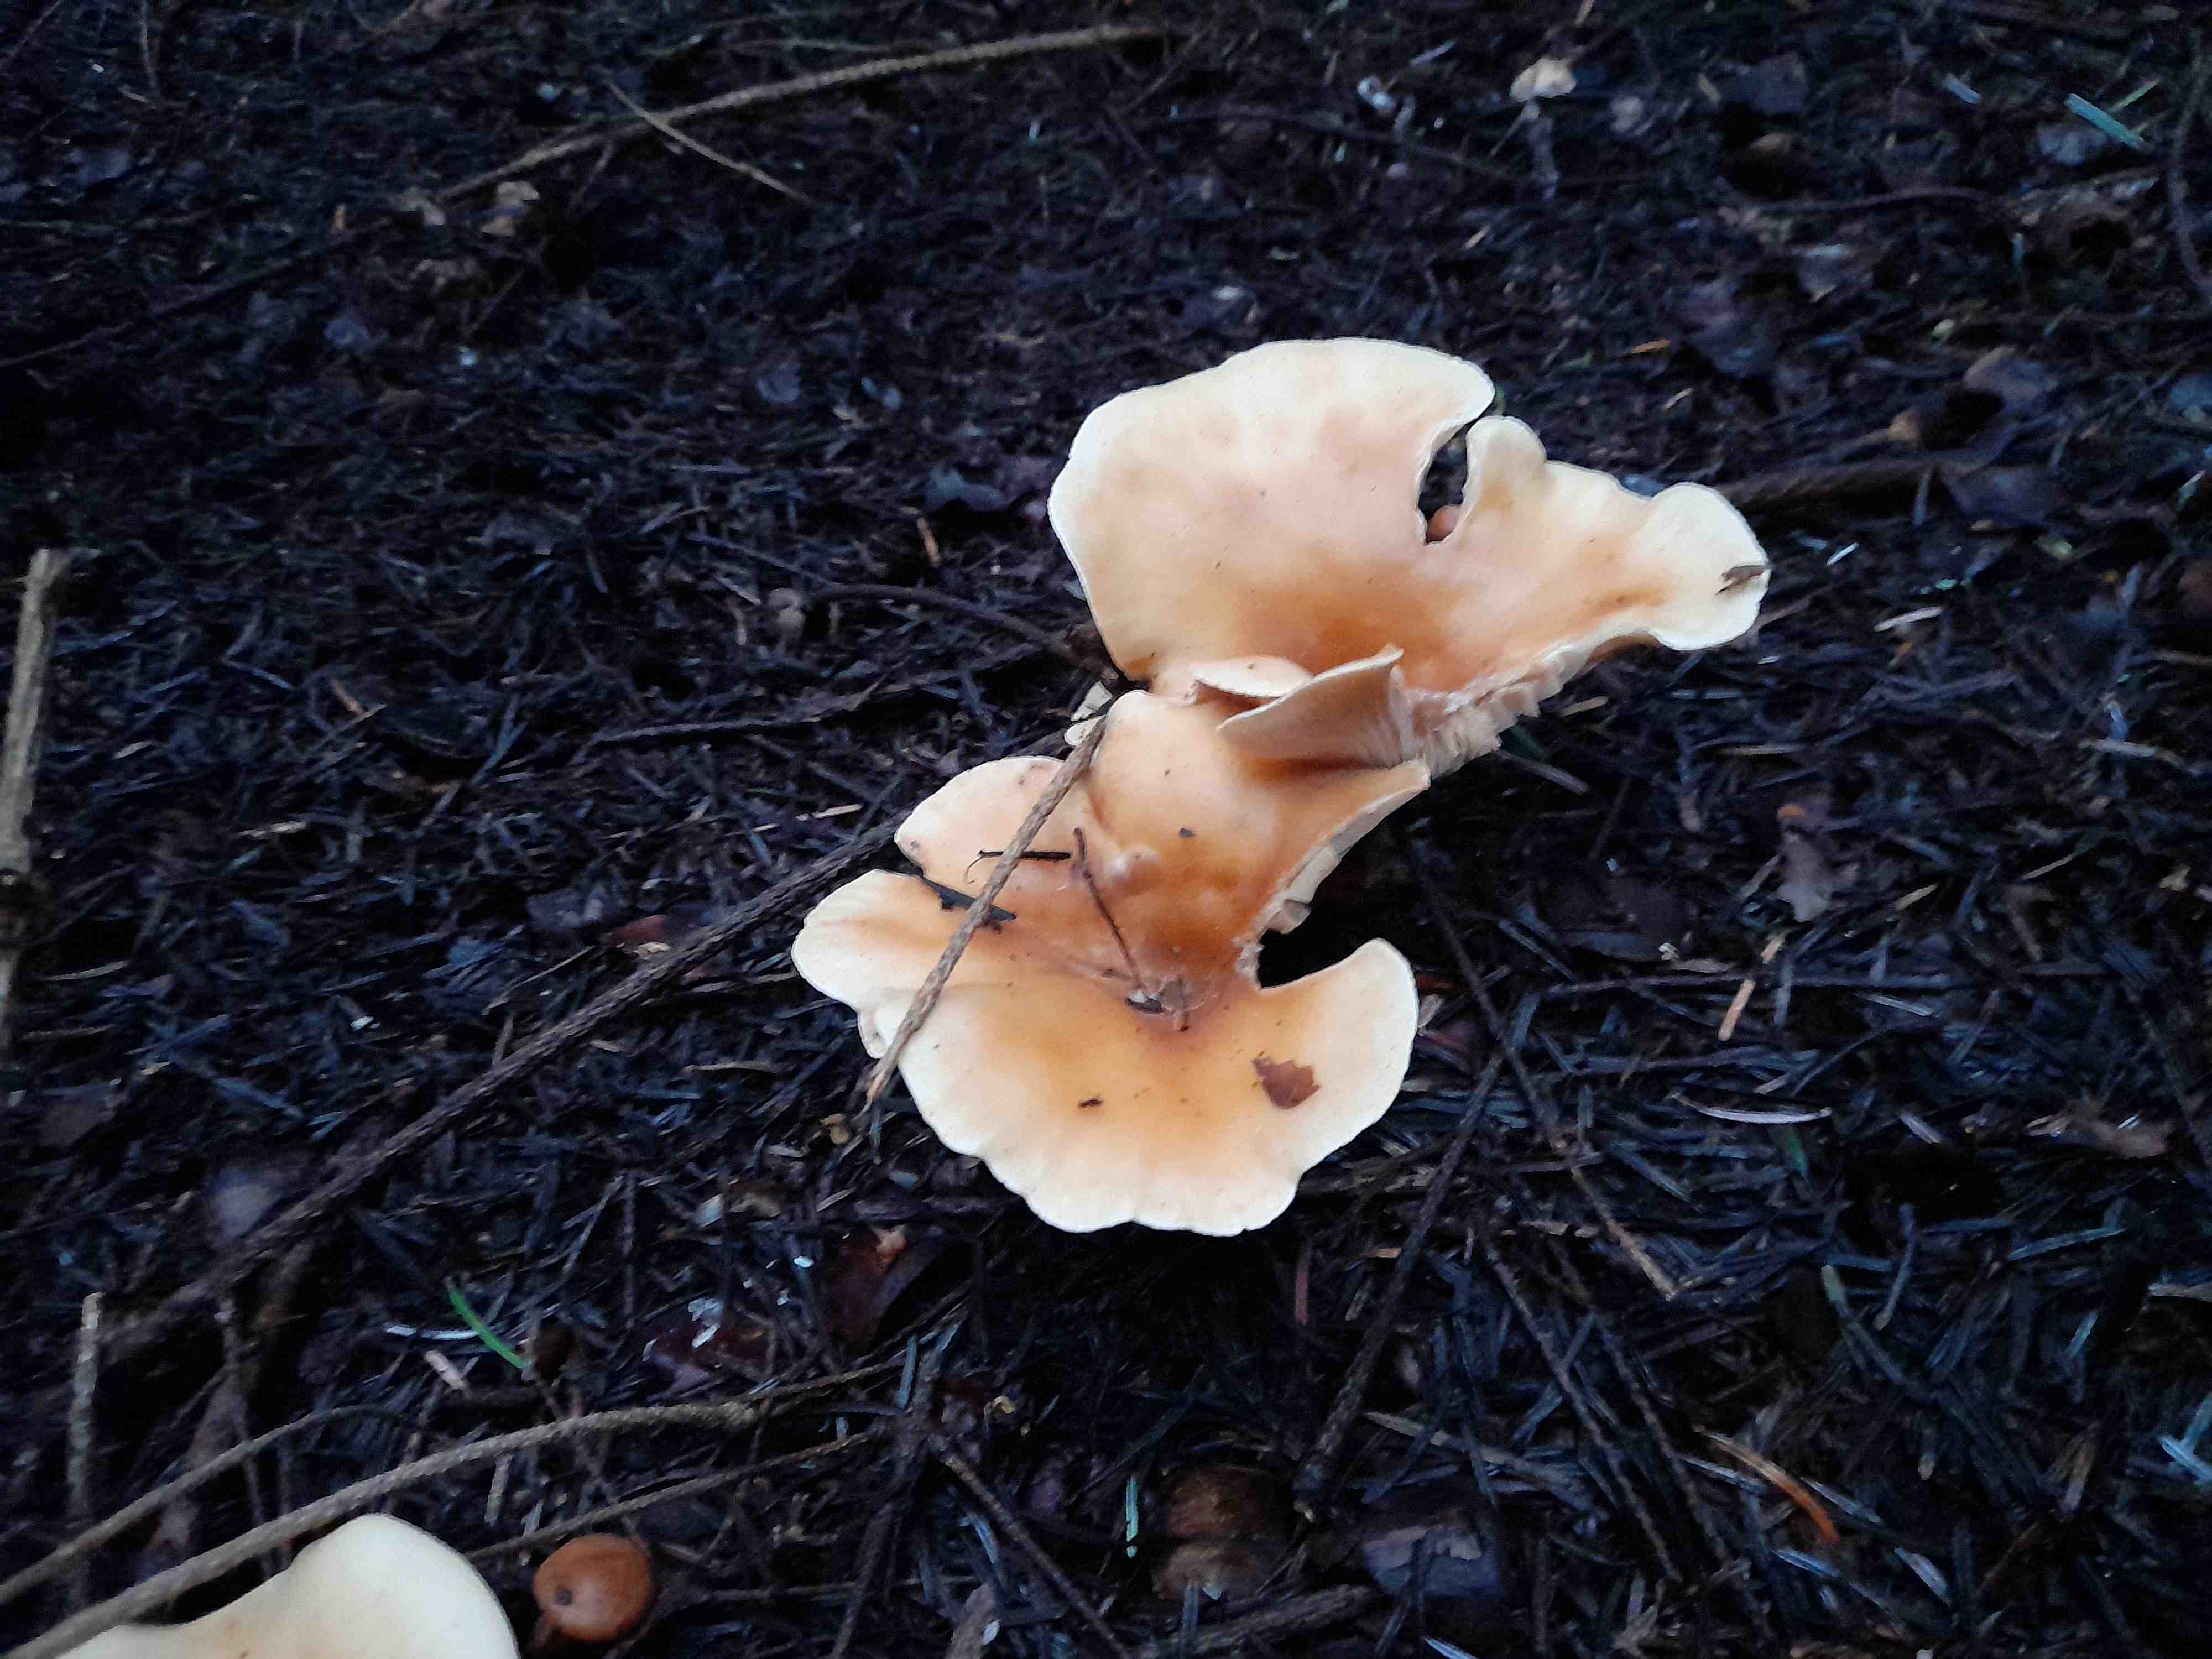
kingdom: Fungi
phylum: Basidiomycota
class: Agaricomycetes
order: Agaricales
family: Tricholomataceae
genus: Paralepista
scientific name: Paralepista flaccida
